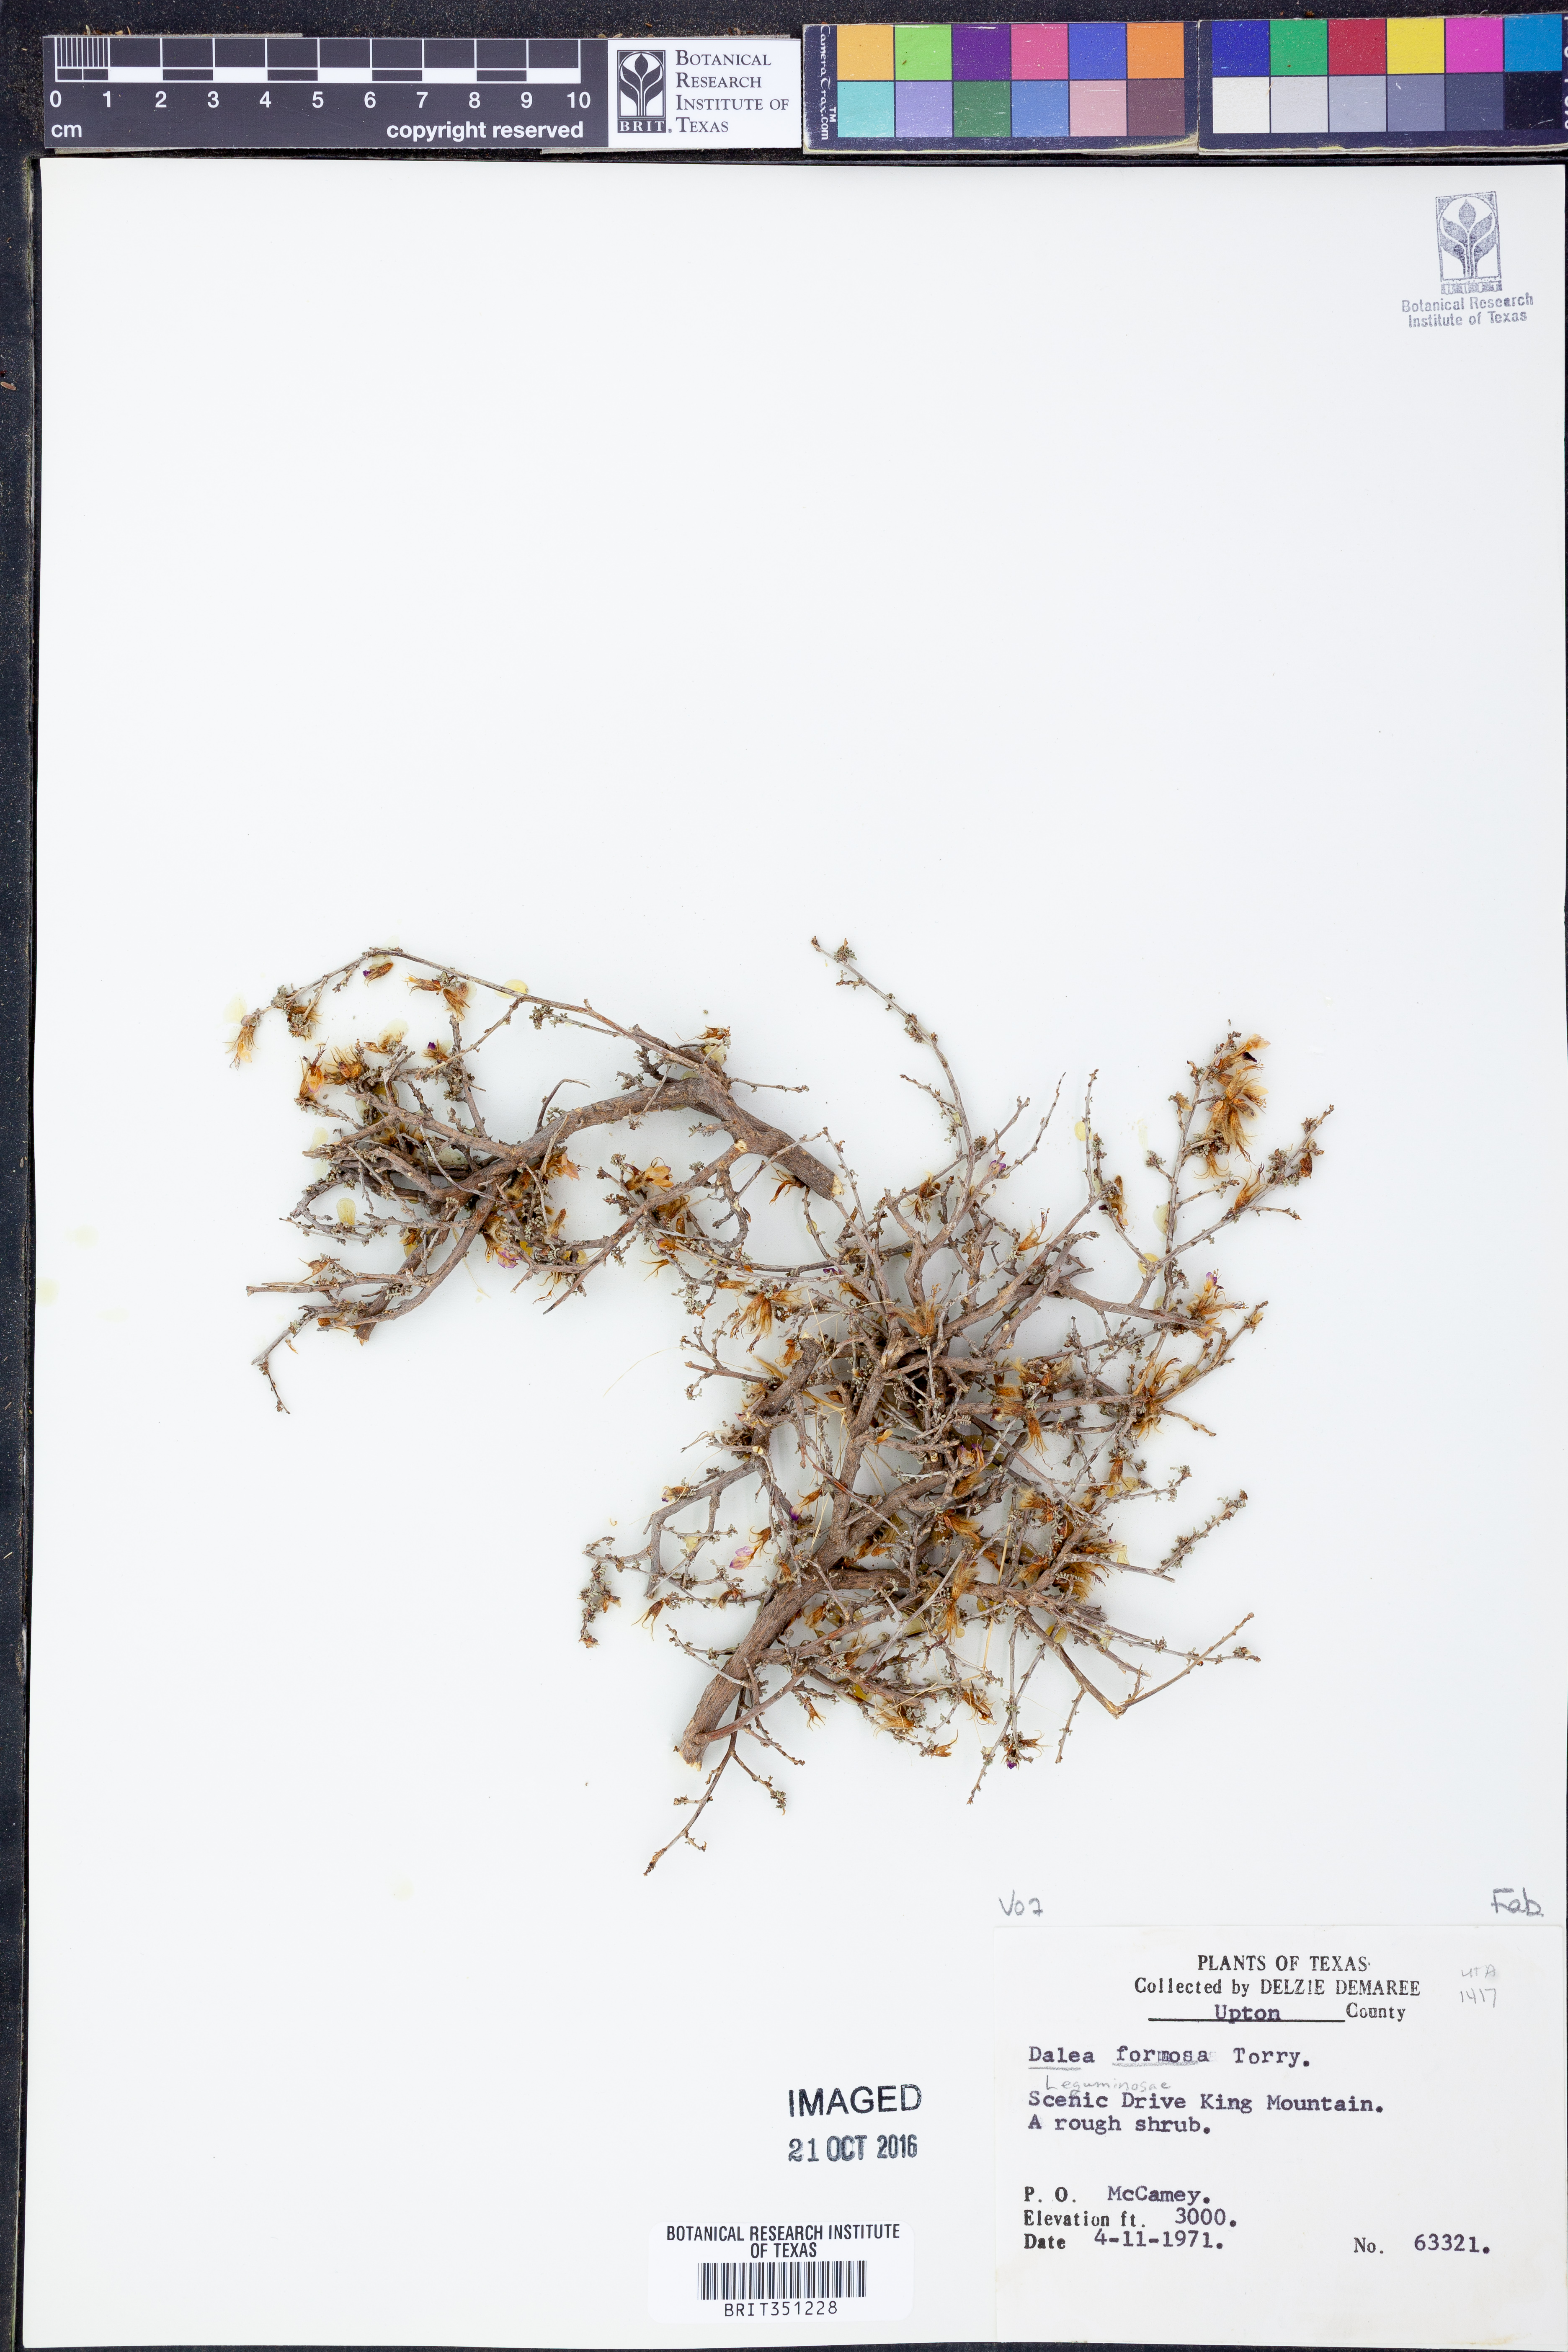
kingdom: Plantae
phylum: Tracheophyta
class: Magnoliopsida
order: Fabales
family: Fabaceae
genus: Dalea
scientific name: Dalea formosa
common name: Feather-plume dalea
